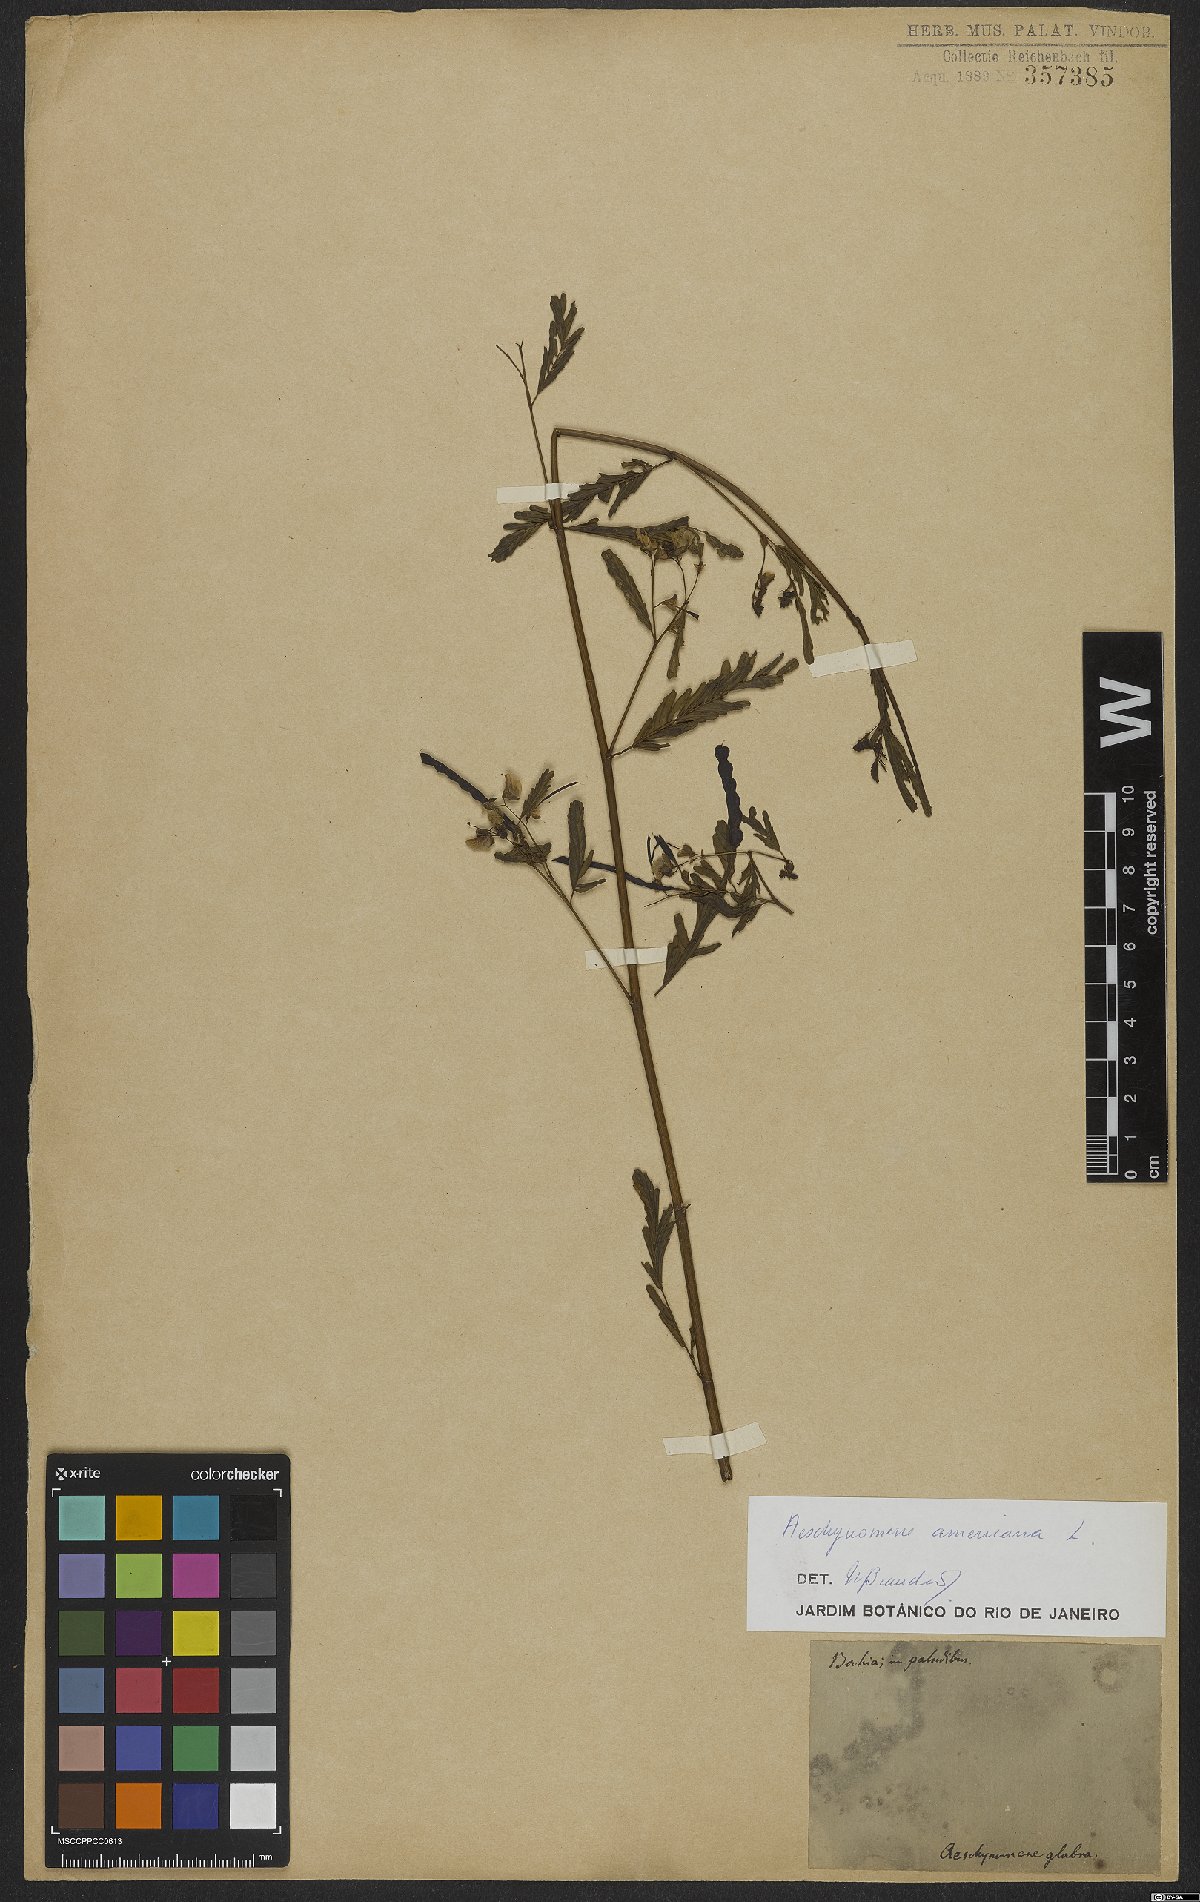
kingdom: Plantae
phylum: Tracheophyta
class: Magnoliopsida
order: Fabales
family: Fabaceae
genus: Aeschynomene
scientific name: Aeschynomene americana
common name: Joint-vetch
